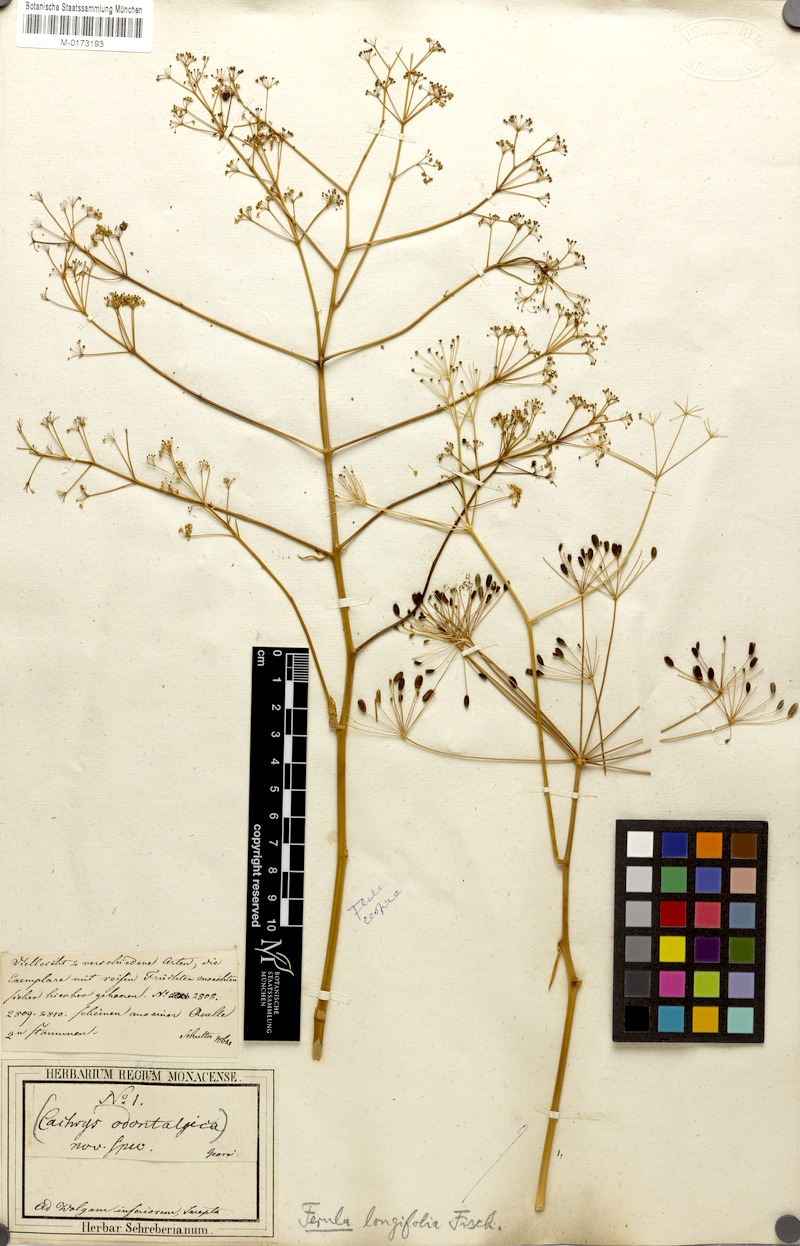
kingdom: Plantae
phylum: Tracheophyta
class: Magnoliopsida
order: Apiales
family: Apiaceae
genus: Eriosynaphe
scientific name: Eriosynaphe longifolia
